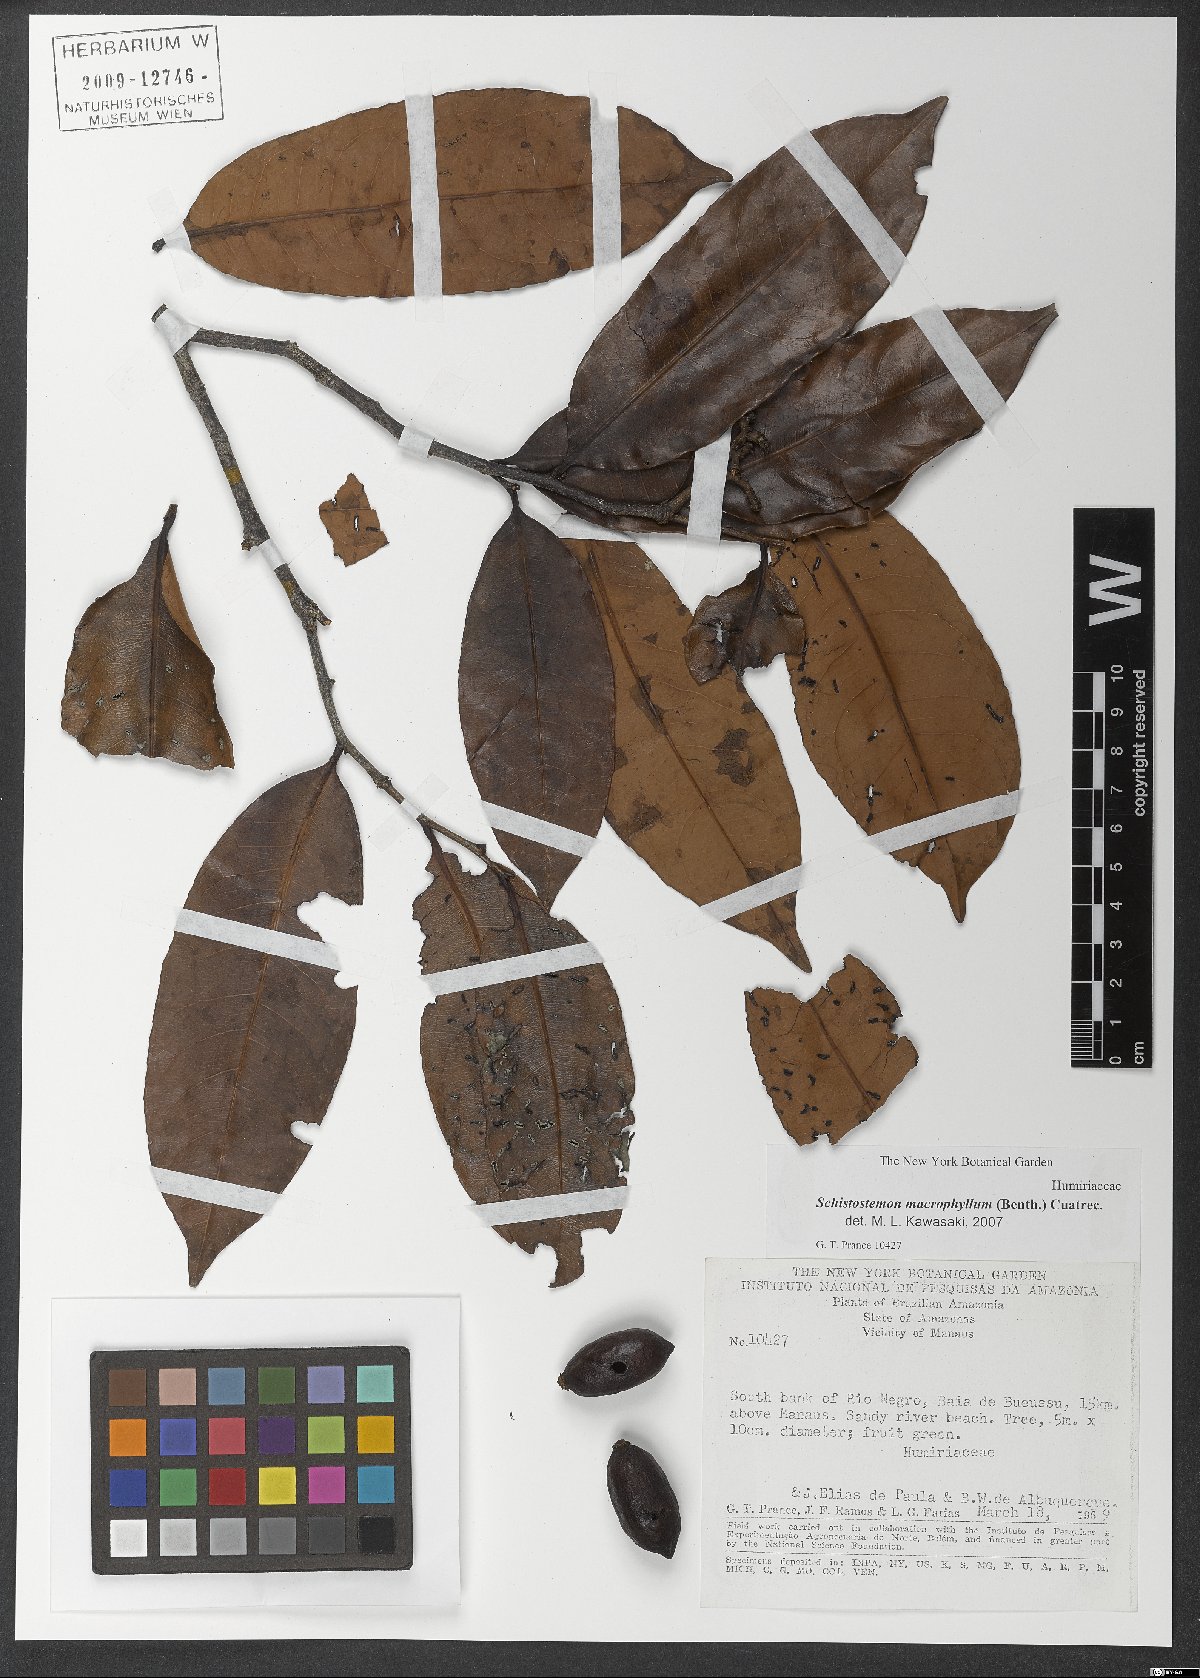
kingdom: Plantae
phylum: Tracheophyta
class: Magnoliopsida
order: Malpighiales
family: Humiriaceae
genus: Schistostemon
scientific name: Schistostemon macrophyllum
